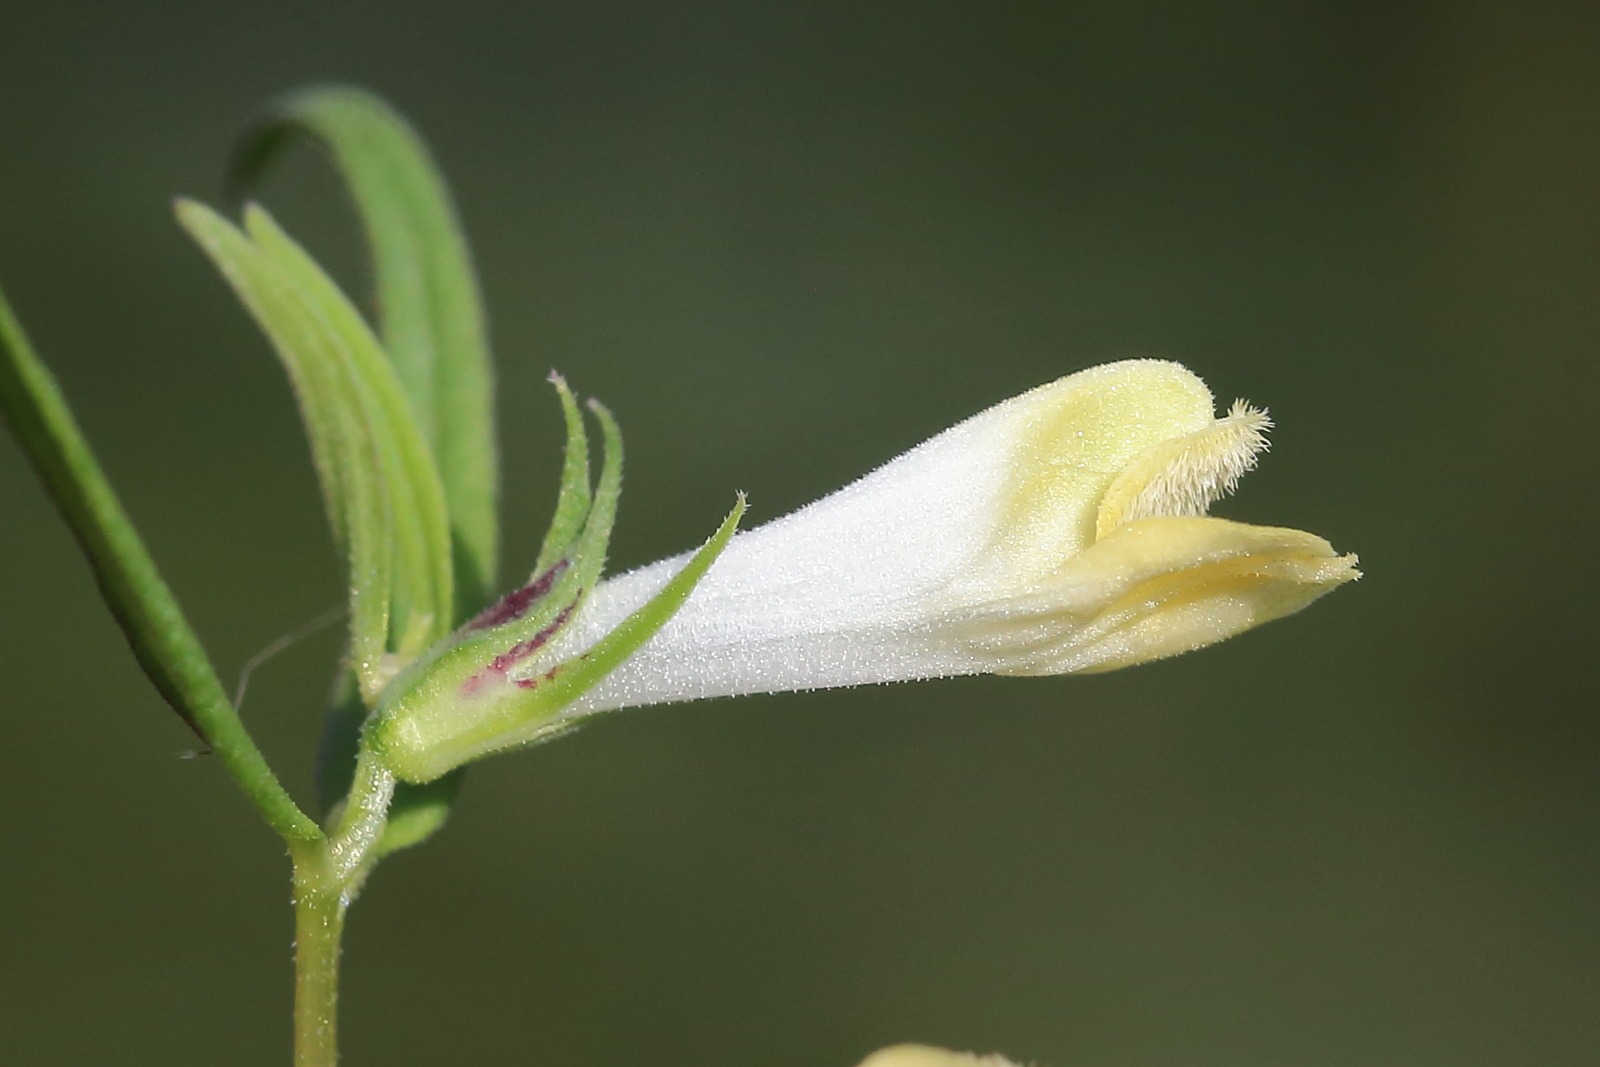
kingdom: Plantae
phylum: Tracheophyta
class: Magnoliopsida
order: Lamiales
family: Orobanchaceae
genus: Melampyrum
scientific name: Melampyrum pratense
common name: Almindelig kohvede
